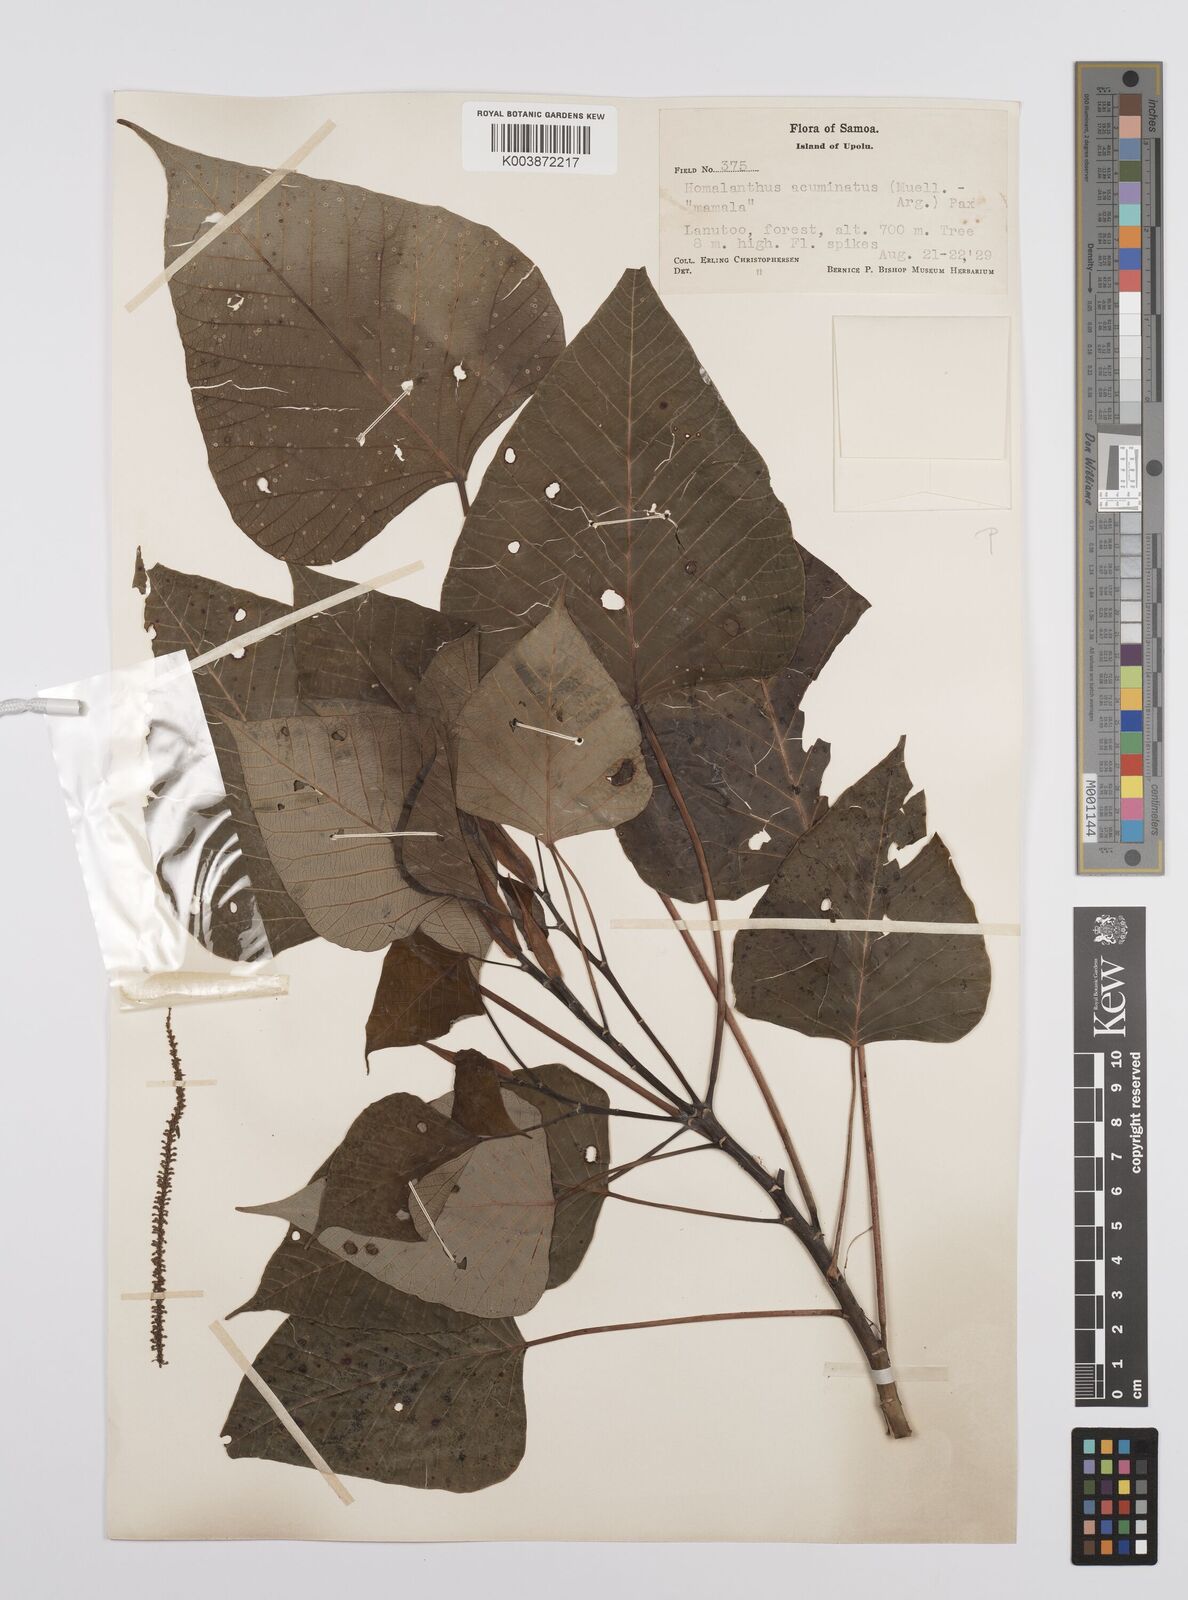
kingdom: Plantae
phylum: Tracheophyta
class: Magnoliopsida
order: Malpighiales
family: Euphorbiaceae
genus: Homalanthus
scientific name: Homalanthus acuminatus
